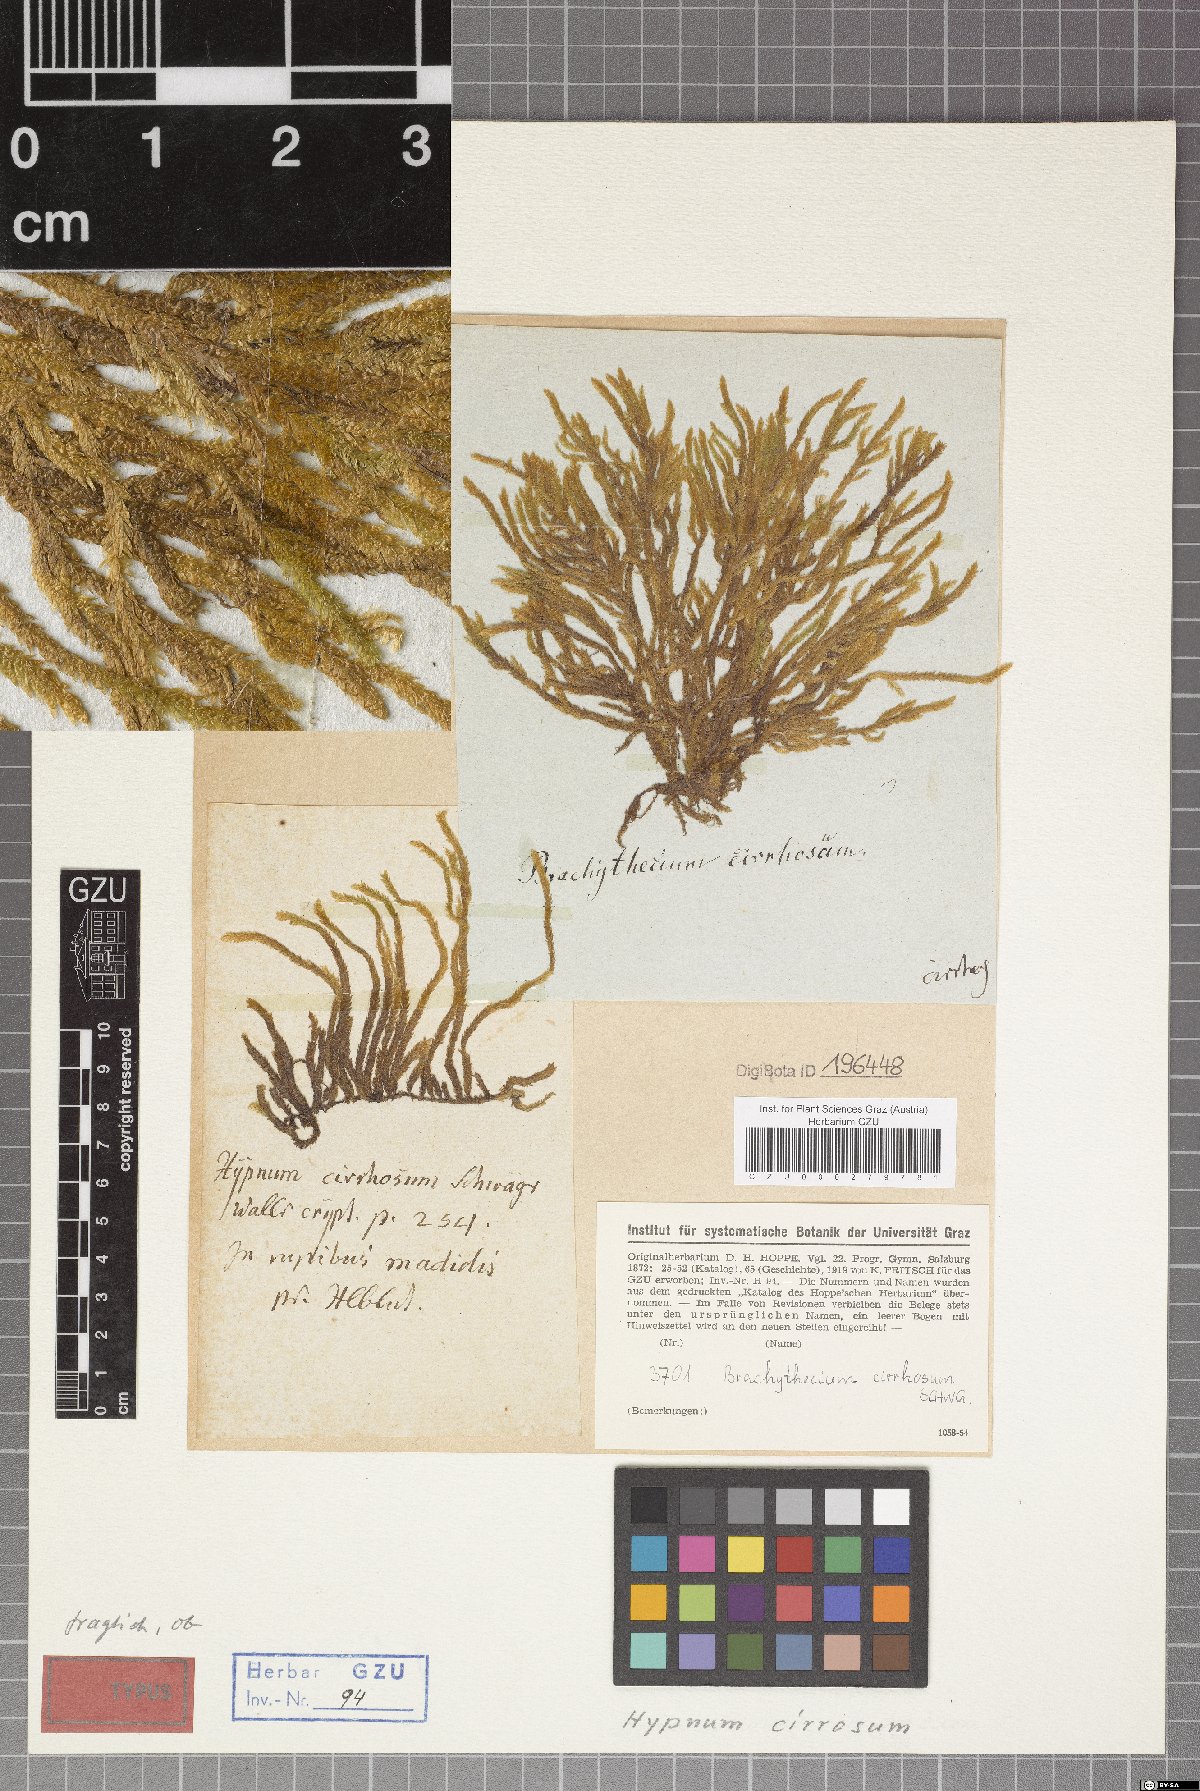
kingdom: Plantae
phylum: Bryophyta
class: Bryopsida
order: Hypnales
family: Brachytheciaceae
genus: Brachythecium
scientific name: Brachythecium cirrosum
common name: Tendril feather-moss
